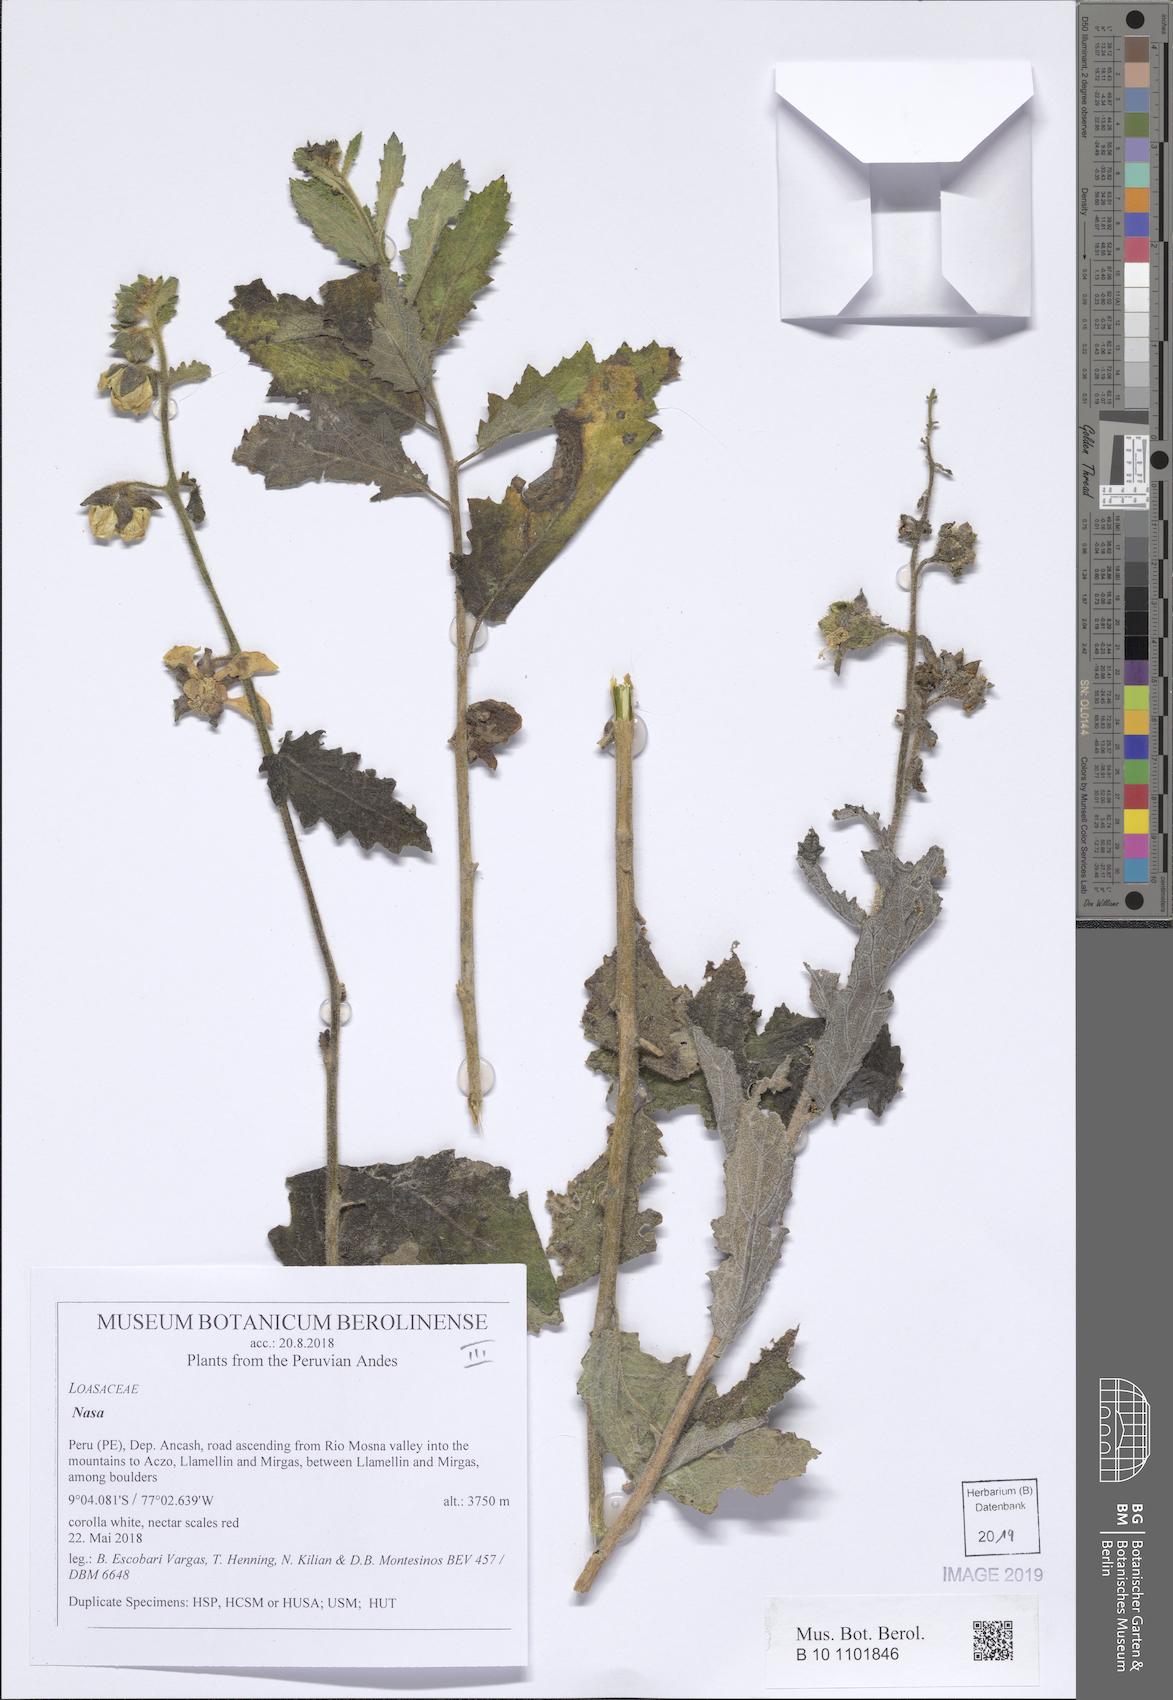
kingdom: Plantae
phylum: Tracheophyta
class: Magnoliopsida
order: Cornales
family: Loasaceae
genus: Nasa
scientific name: Nasa carunculata
